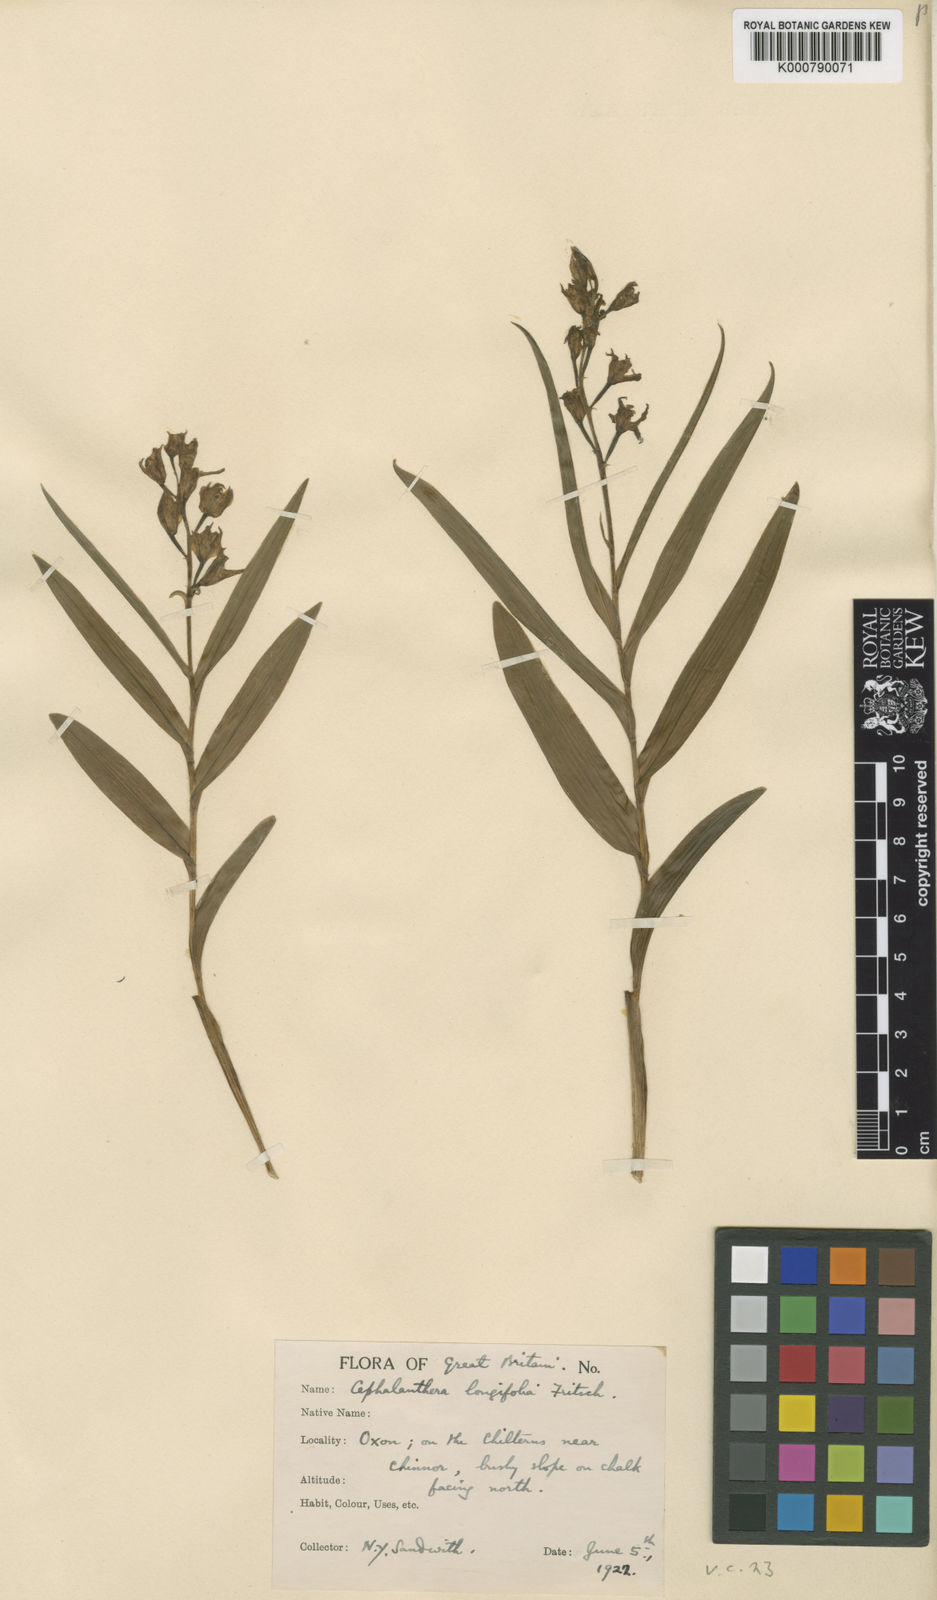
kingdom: Plantae
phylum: Tracheophyta
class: Liliopsida
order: Asparagales
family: Orchidaceae
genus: Cephalanthera
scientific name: Cephalanthera longifolia
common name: Narrow-leaved helleborine
